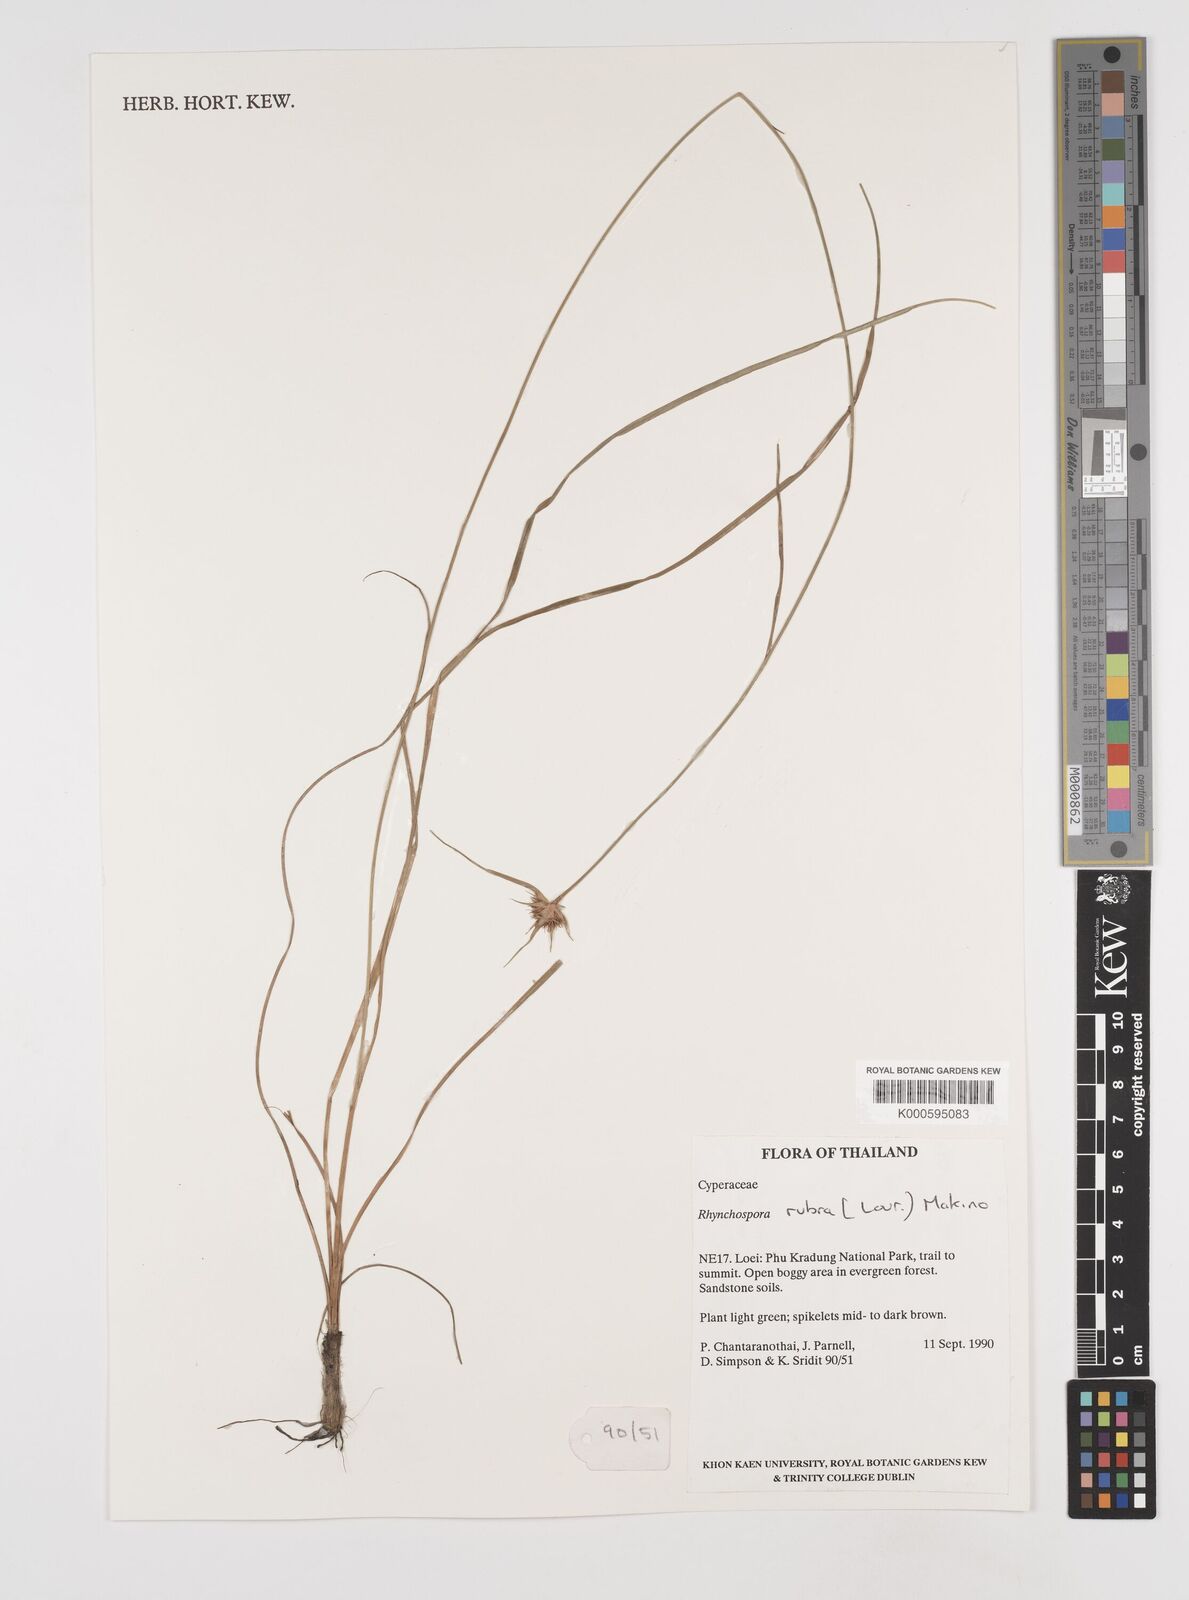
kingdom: Plantae
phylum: Tracheophyta
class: Liliopsida
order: Poales
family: Cyperaceae
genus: Rhynchospora
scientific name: Rhynchospora rubra
